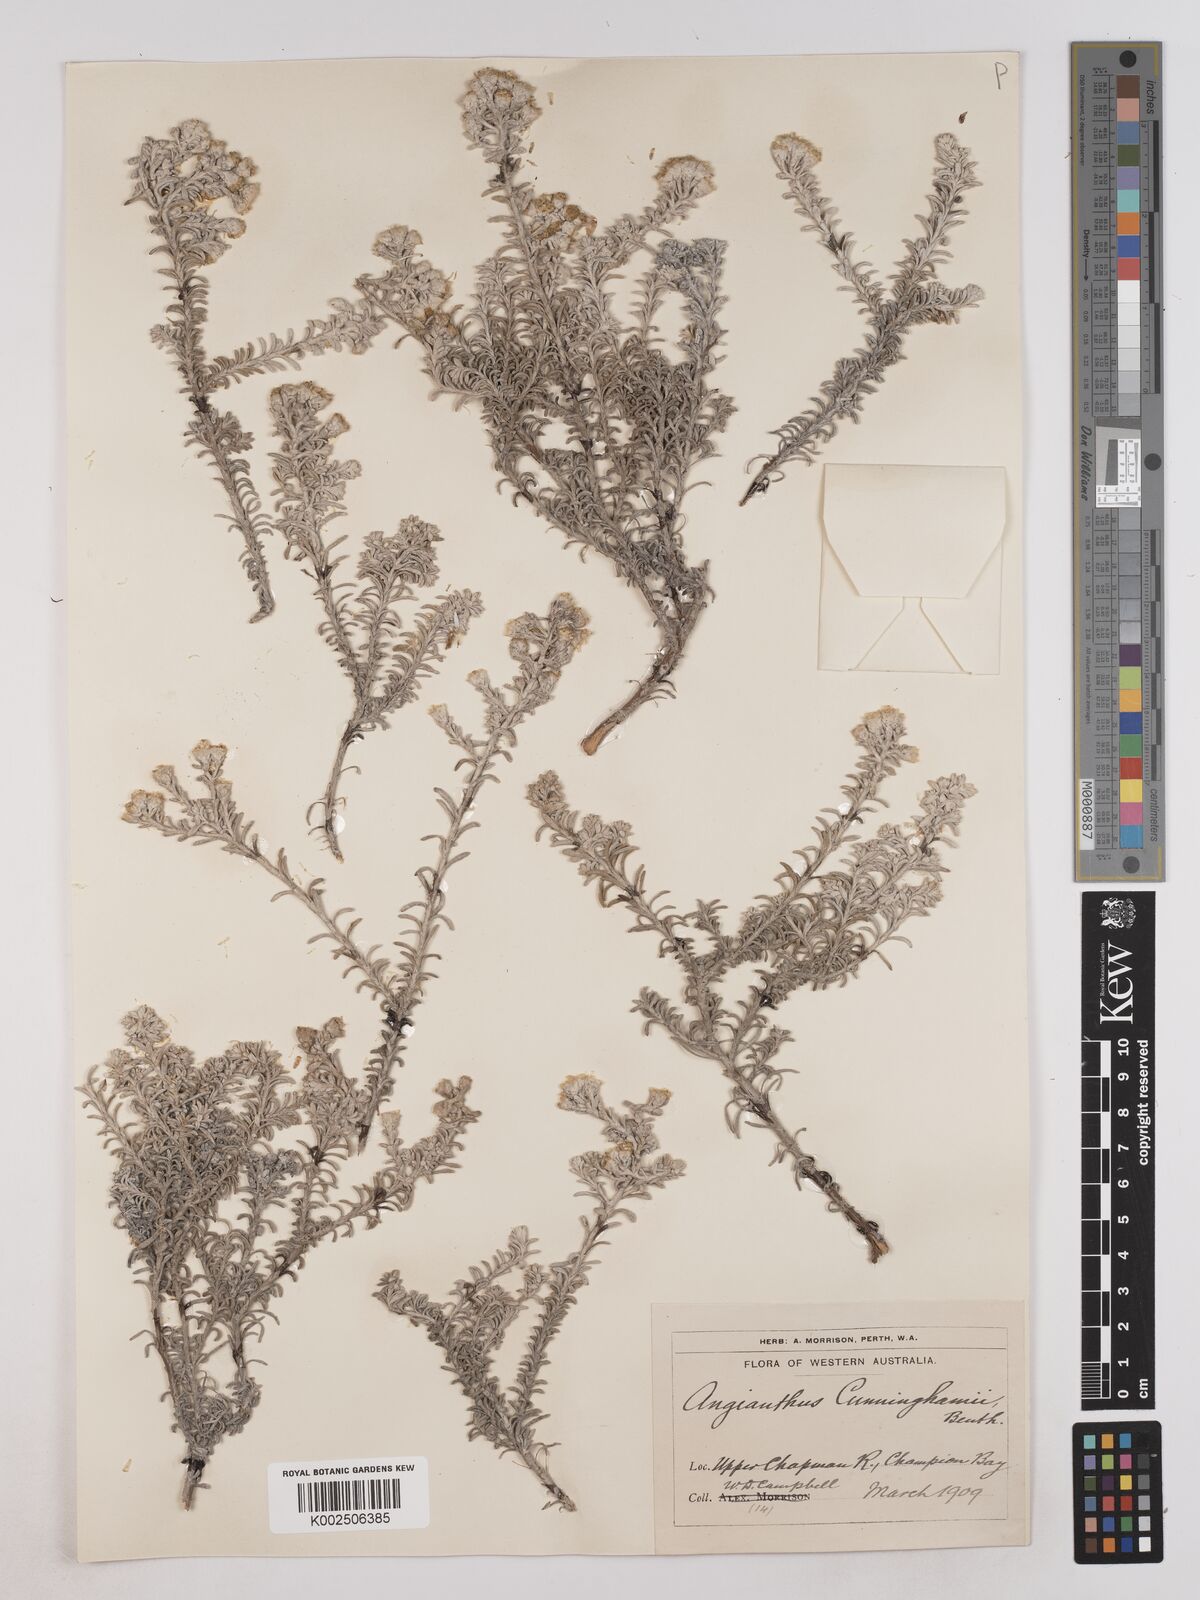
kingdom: Plantae
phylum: Tracheophyta
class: Magnoliopsida
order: Asterales
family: Asteraceae
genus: Angianthus
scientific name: Angianthus cunninghamii
